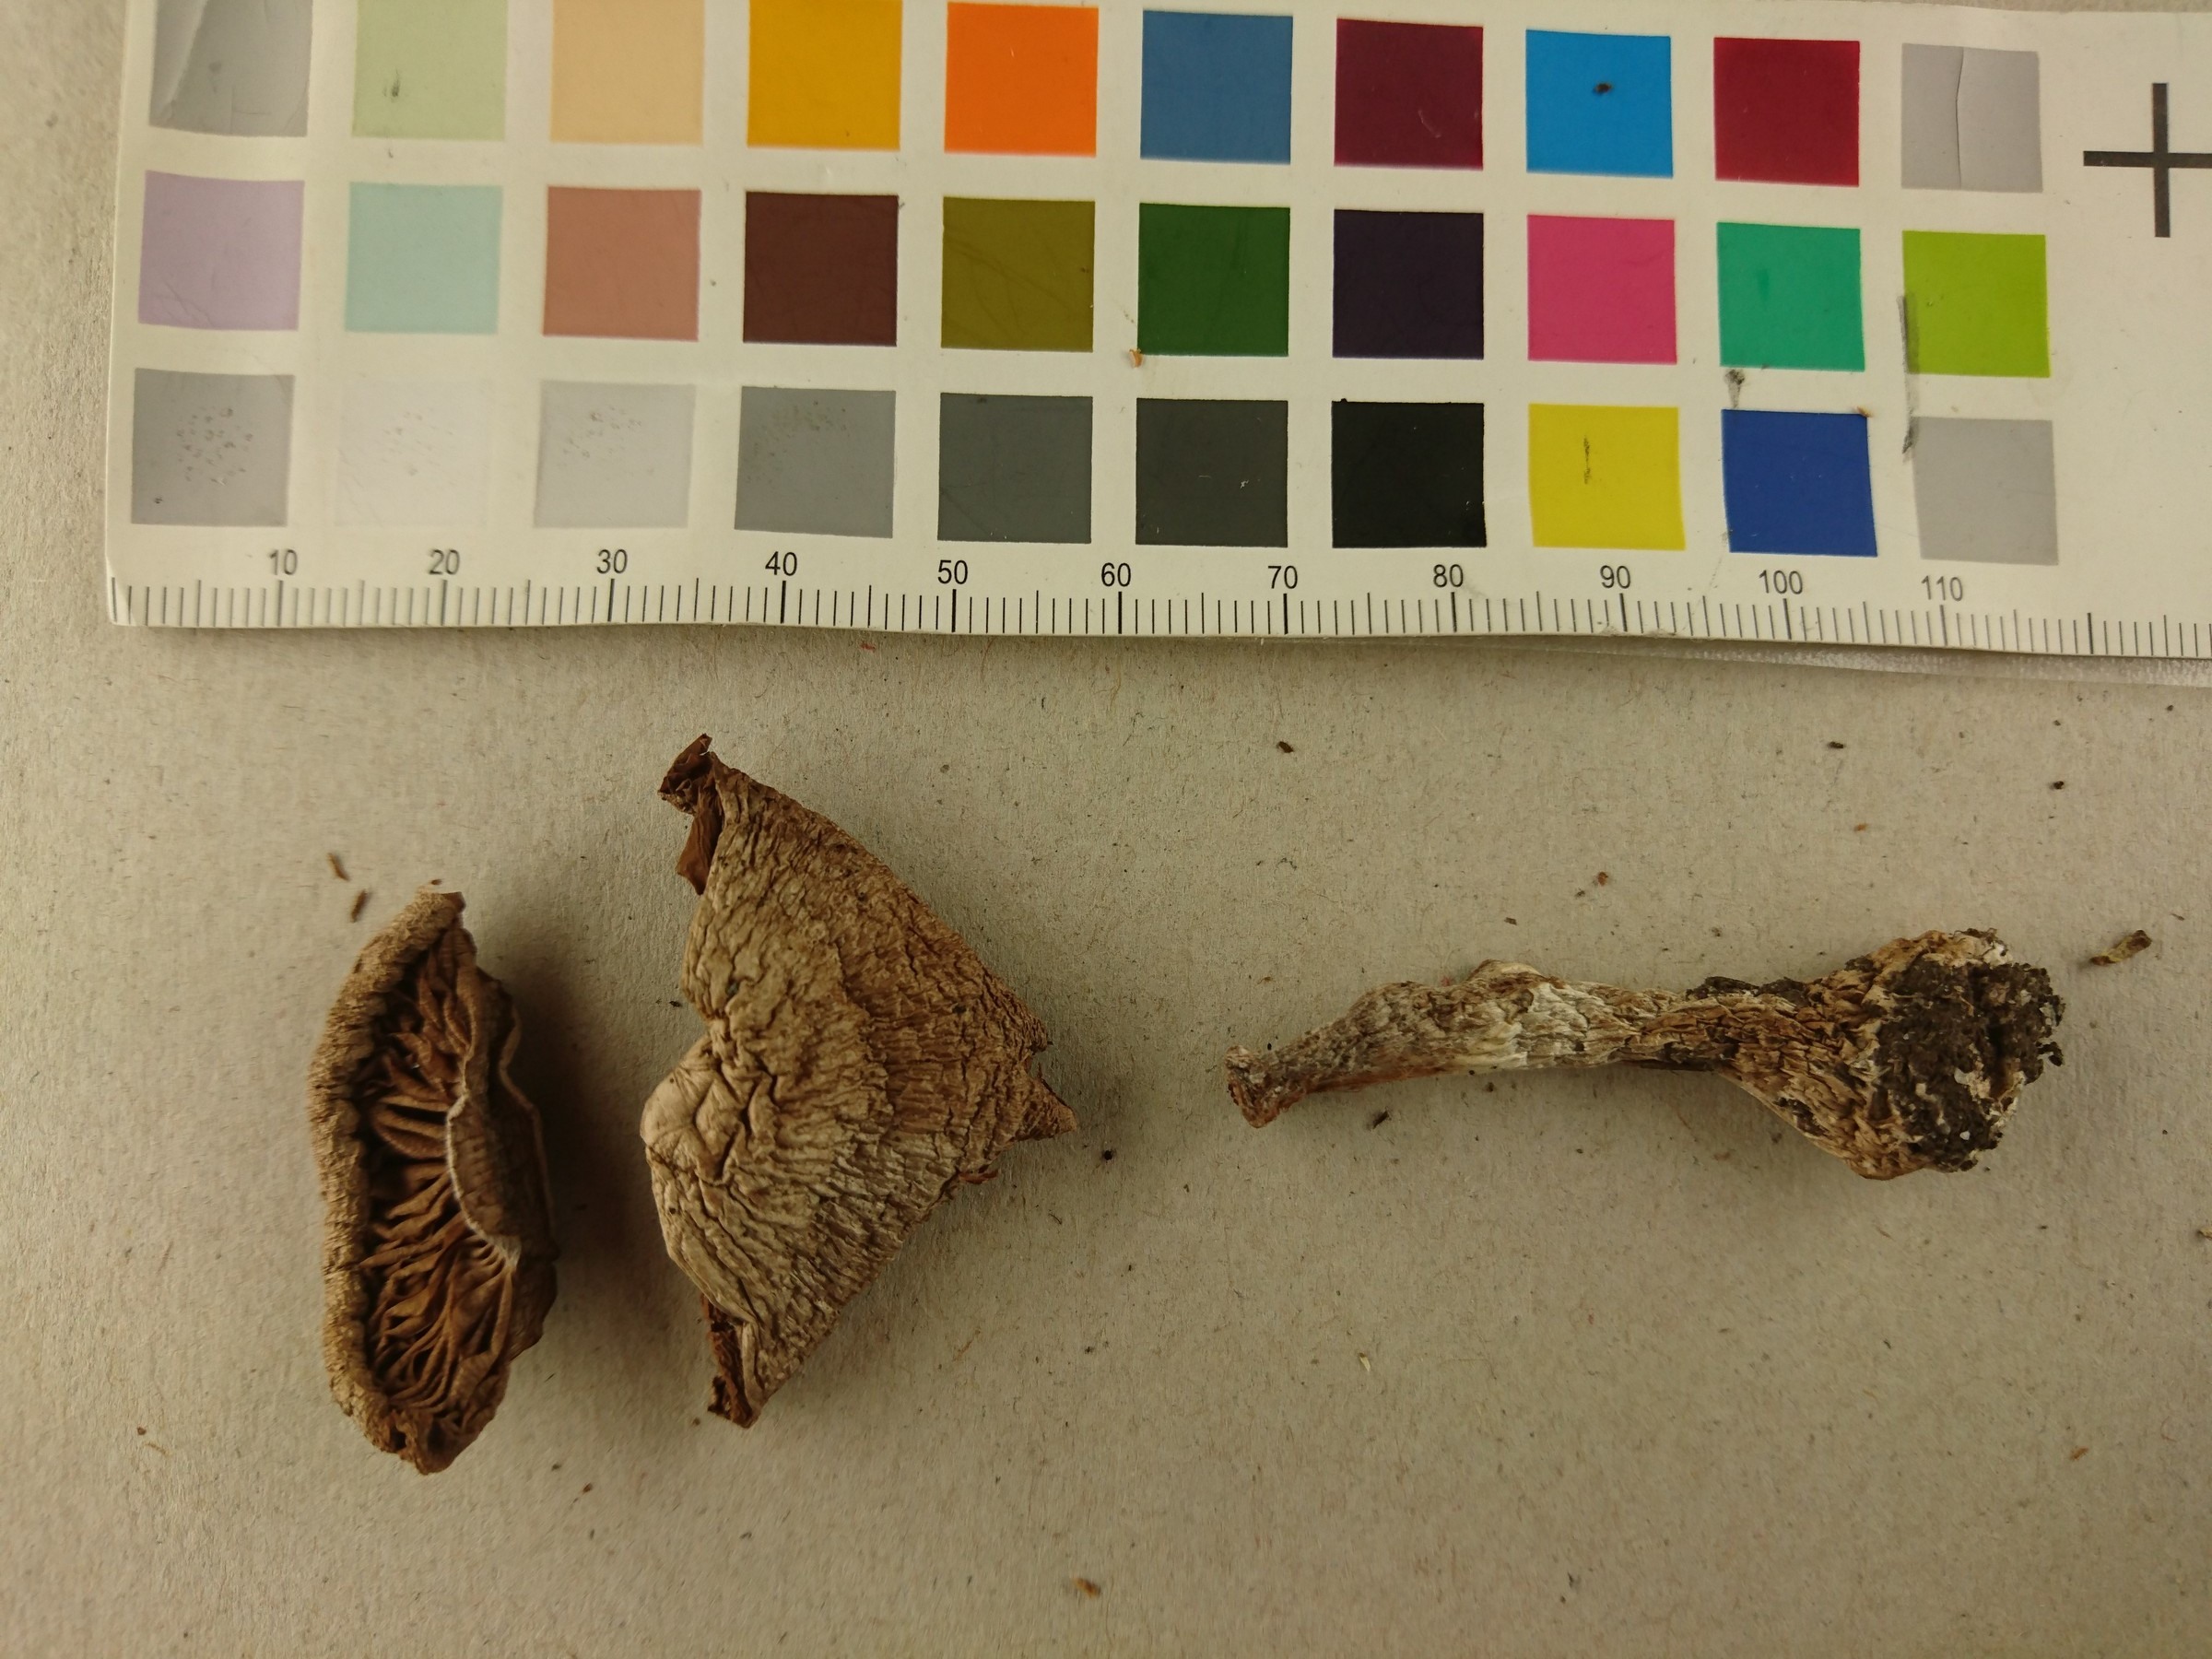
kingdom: Fungi
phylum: Basidiomycota
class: Agaricomycetes
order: Agaricales
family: Cortinariaceae
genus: Cortinarius
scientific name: Cortinarius niveotraganus
